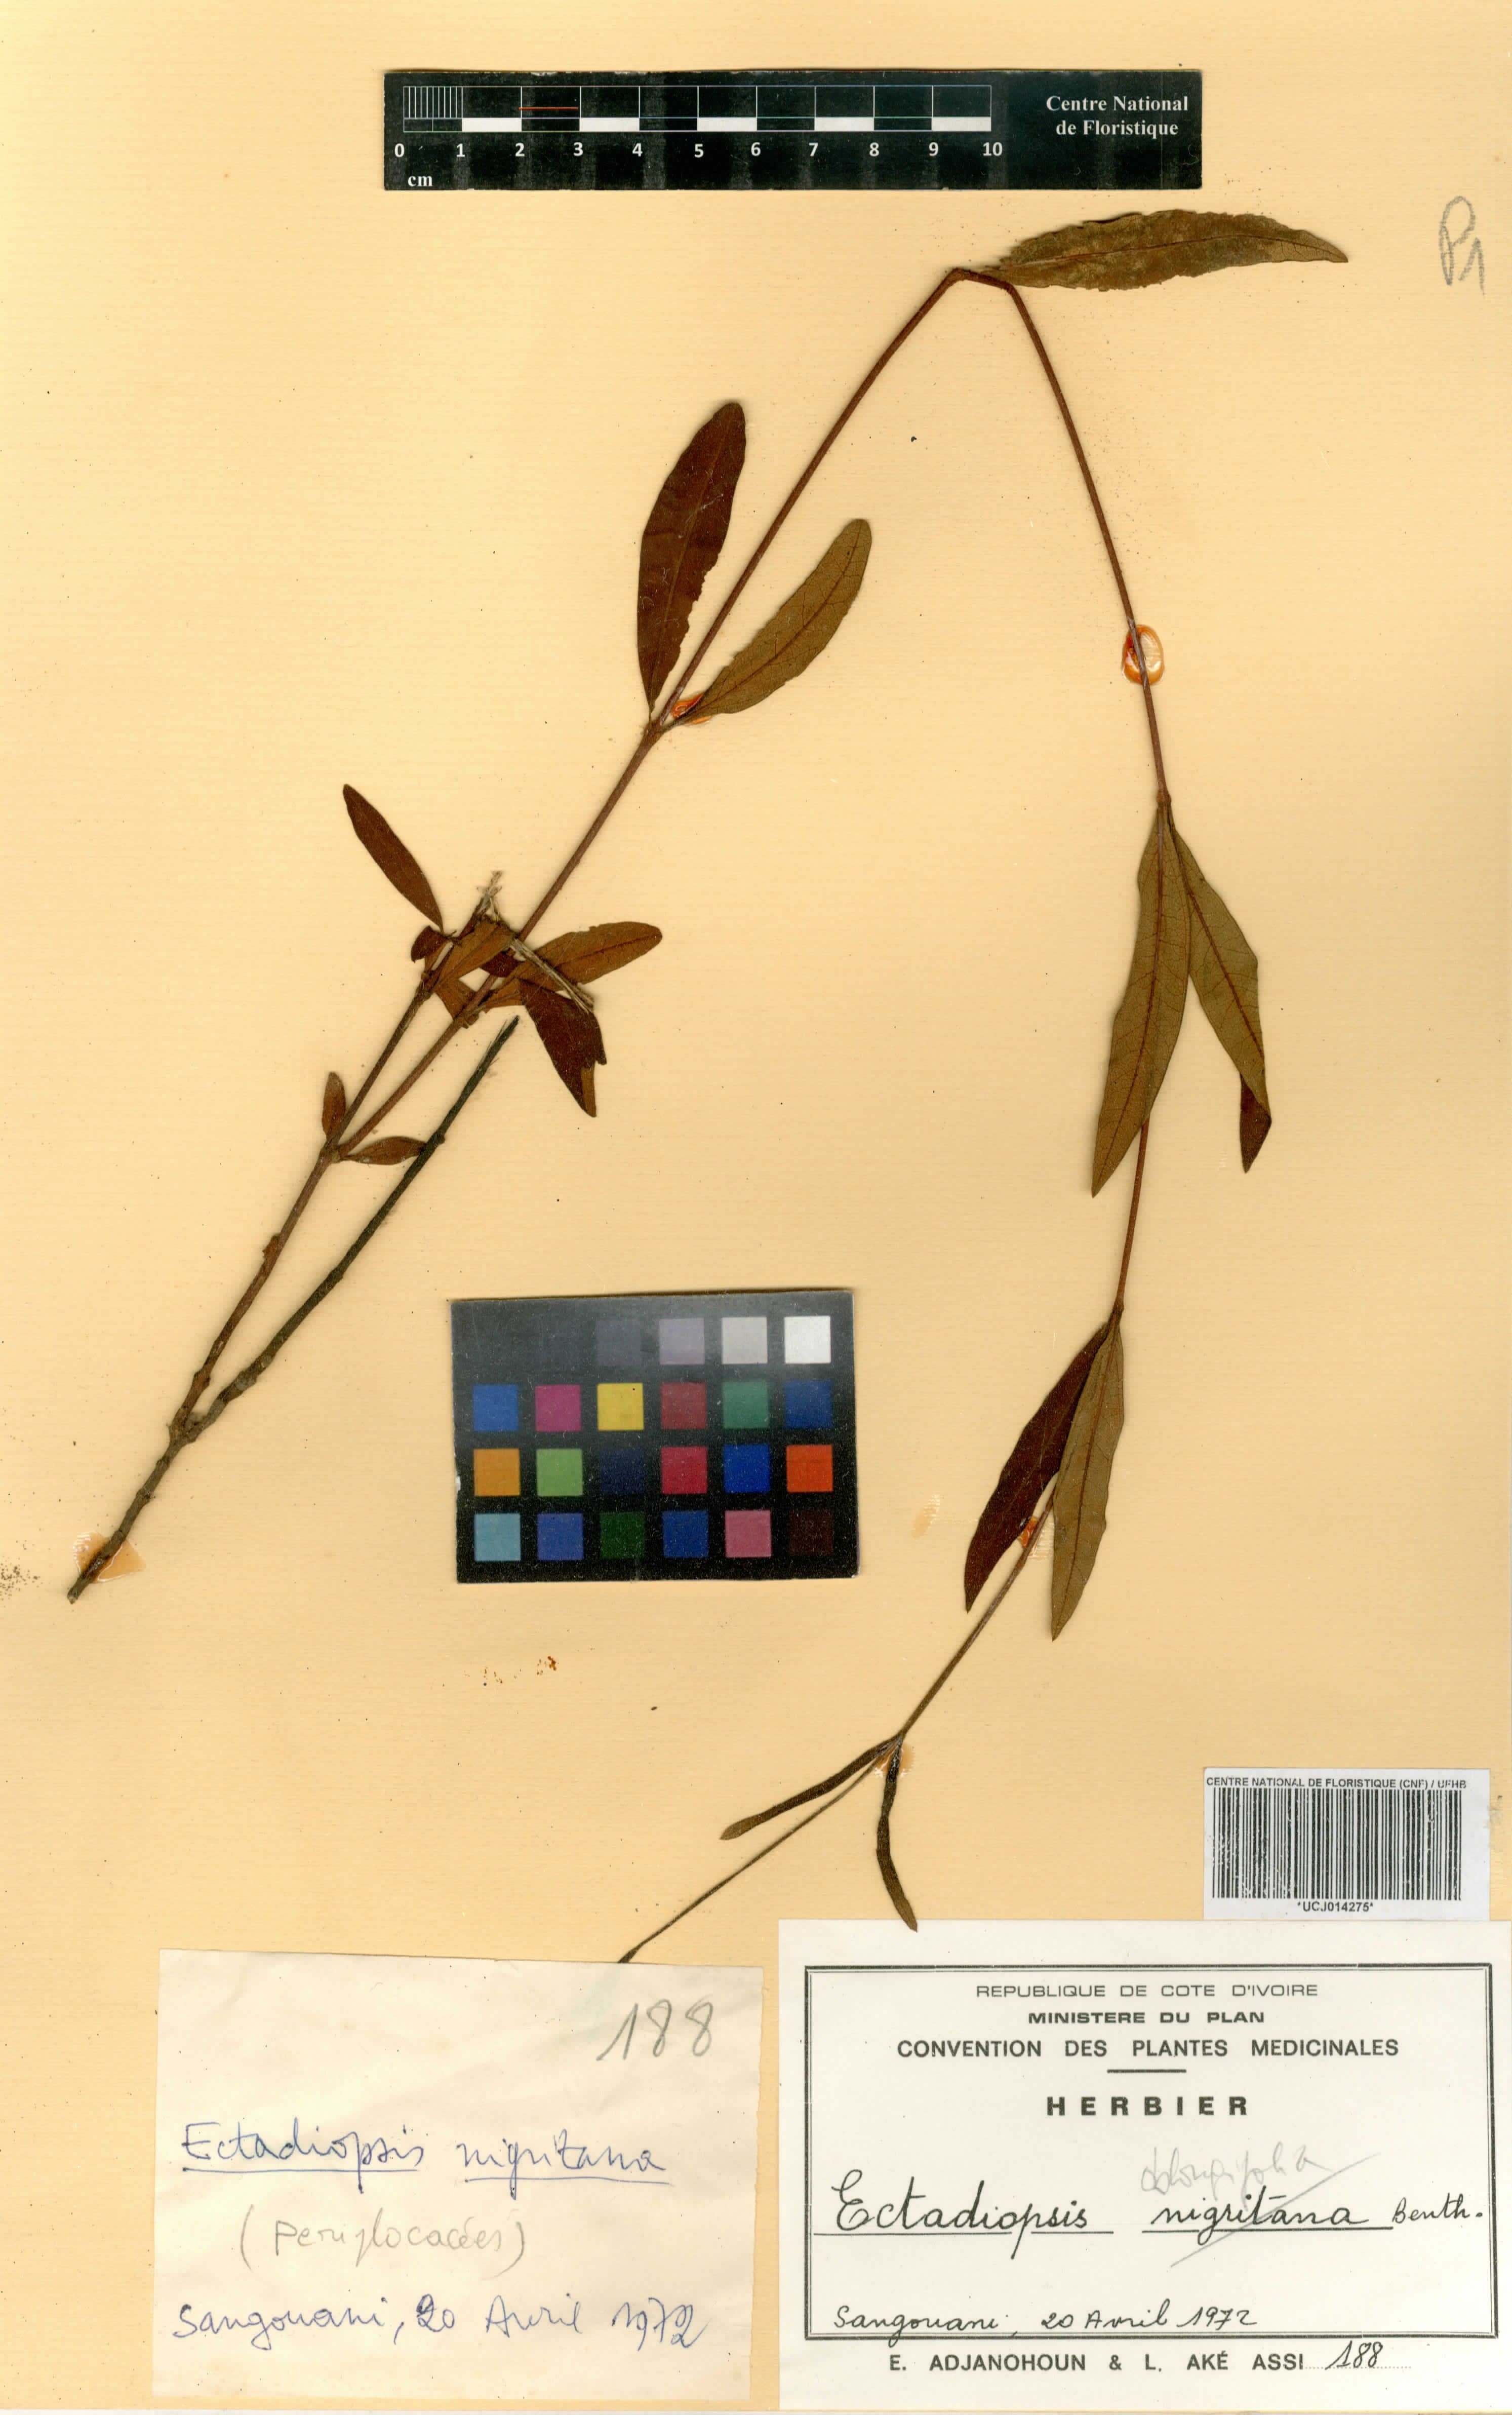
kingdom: Plantae
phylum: Tracheophyta
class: Magnoliopsida
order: Gentianales
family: Apocynaceae
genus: Cryptolepis
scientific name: Cryptolepis oblongifolia
